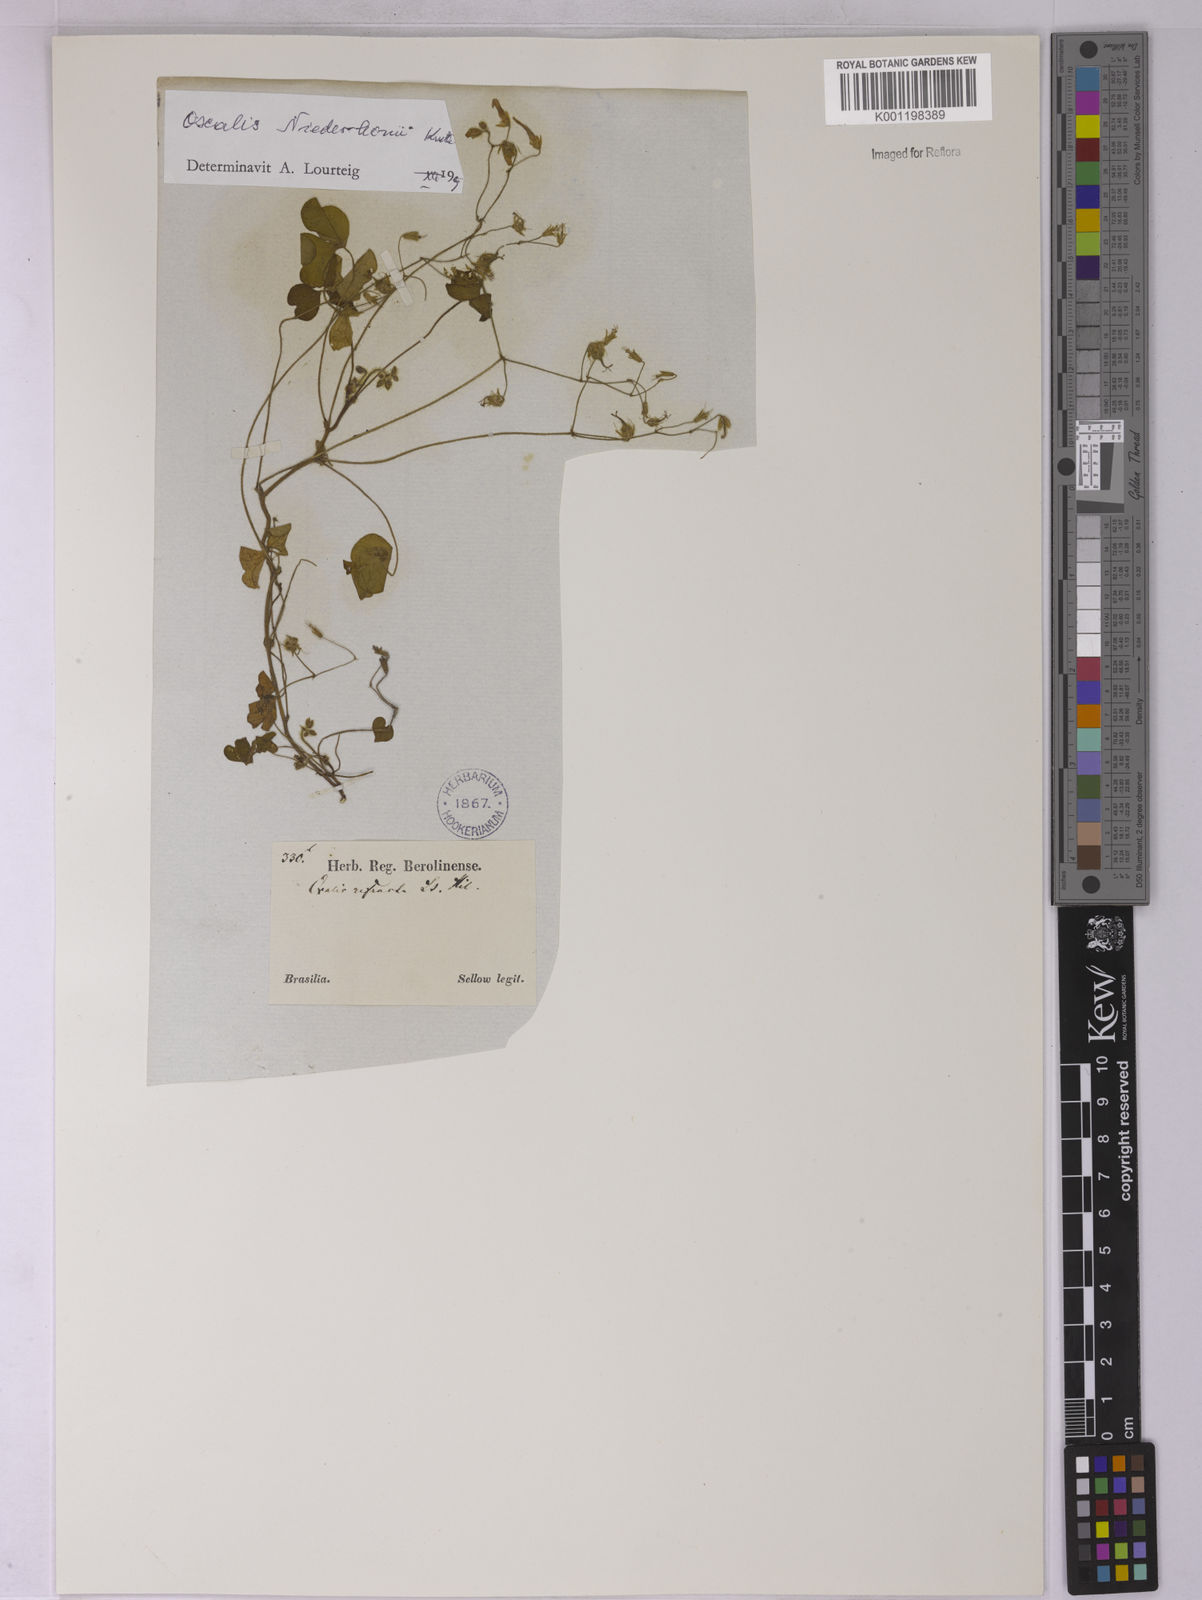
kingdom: Plantae
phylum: Tracheophyta
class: Magnoliopsida
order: Oxalidales
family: Oxalidaceae
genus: Oxalis
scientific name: Oxalis niederleinii
